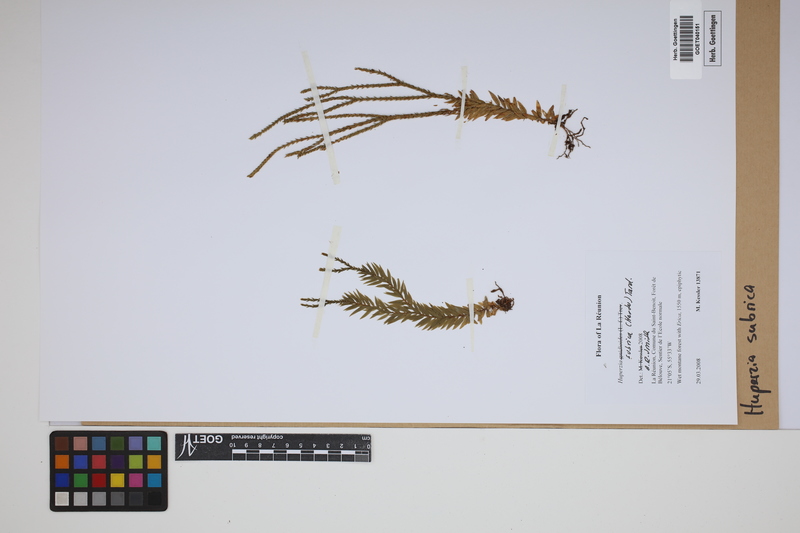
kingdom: Plantae
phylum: Tracheophyta
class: Lycopodiopsida
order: Lycopodiales
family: Lycopodiaceae
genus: Phlegmariurus
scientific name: Phlegmariurus
